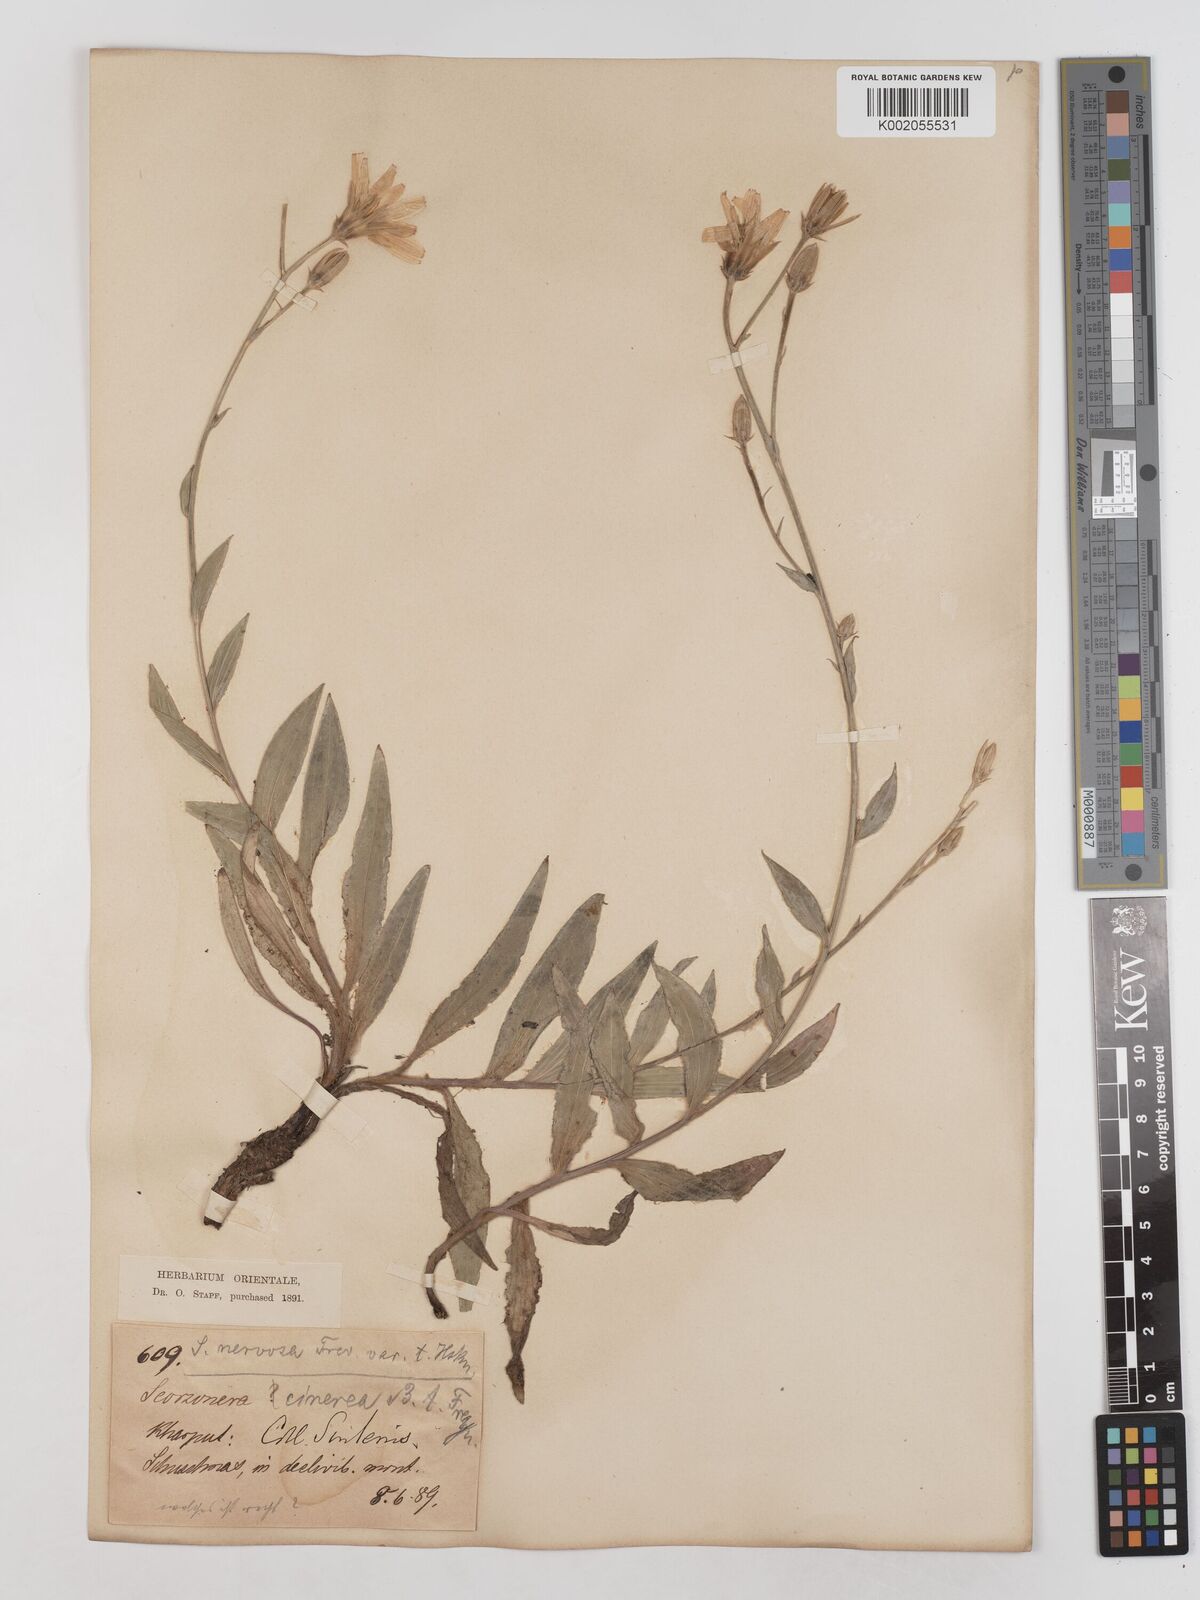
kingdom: Plantae
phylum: Tracheophyta
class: Magnoliopsida
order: Asterales
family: Asteraceae
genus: Cigdemia
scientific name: Cigdemia cinerea
